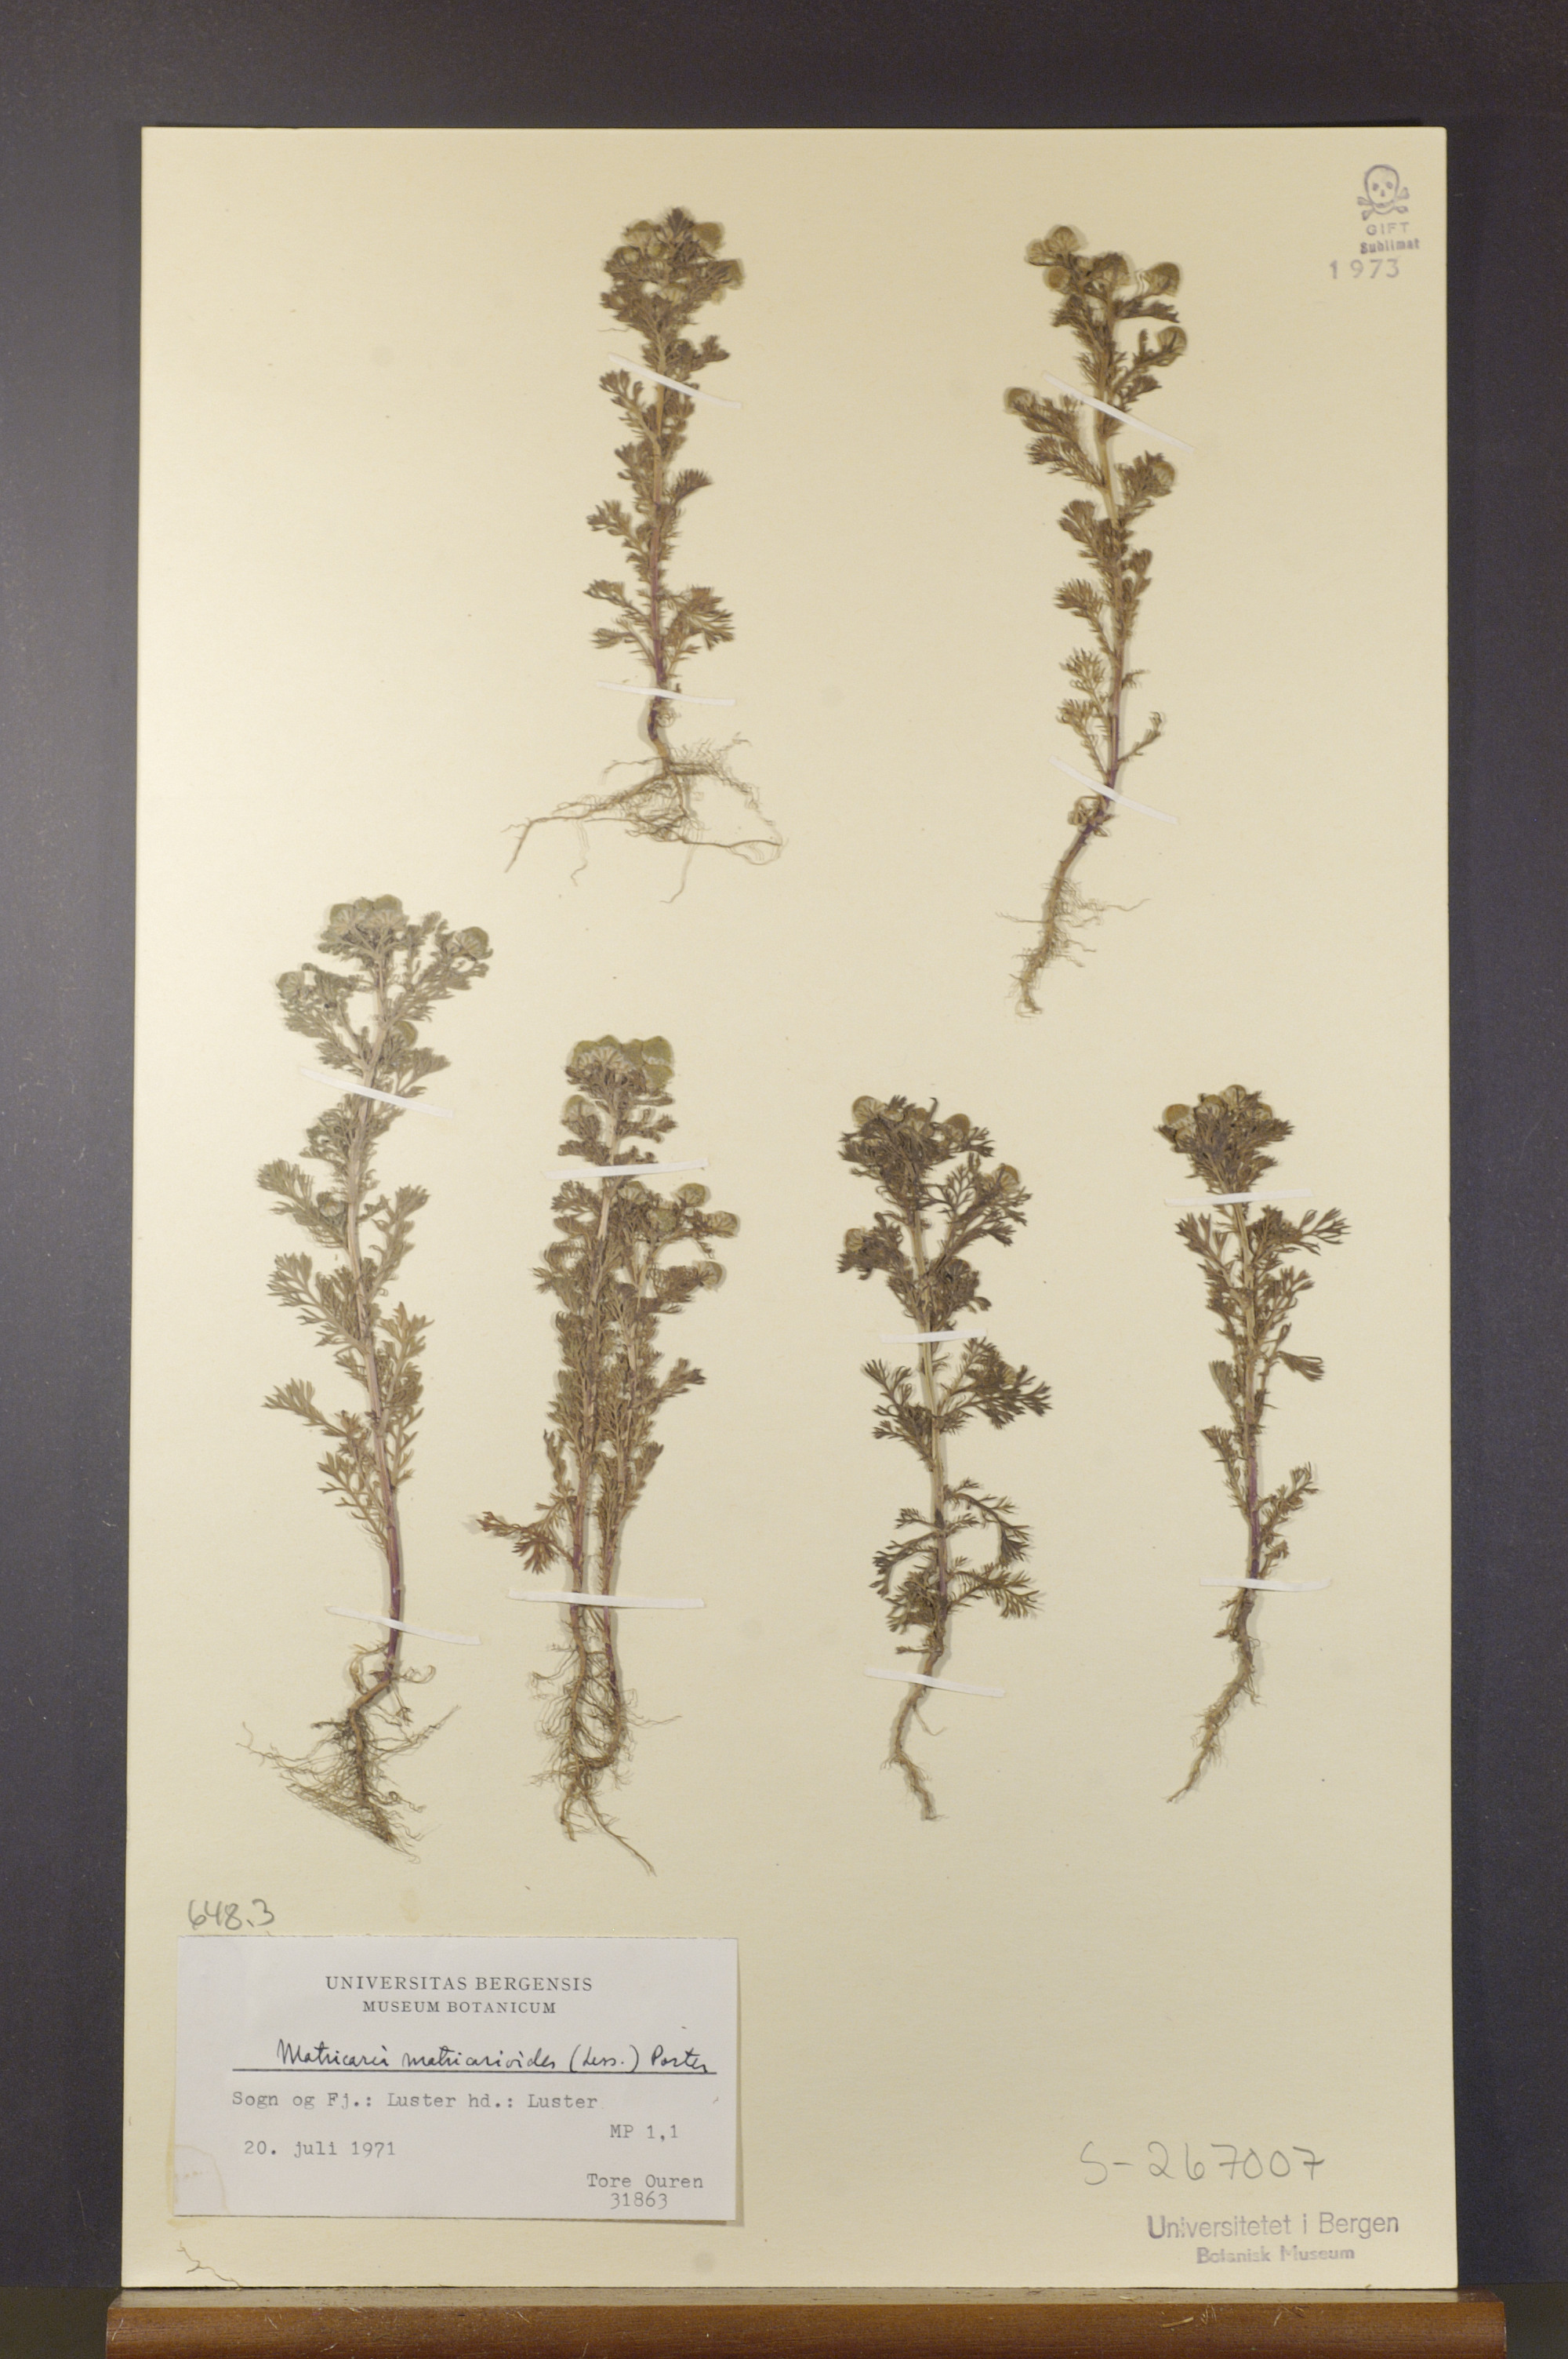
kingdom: Plantae
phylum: Tracheophyta
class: Magnoliopsida
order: Asterales
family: Asteraceae
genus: Matricaria
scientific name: Matricaria discoidea
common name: Disc mayweed
